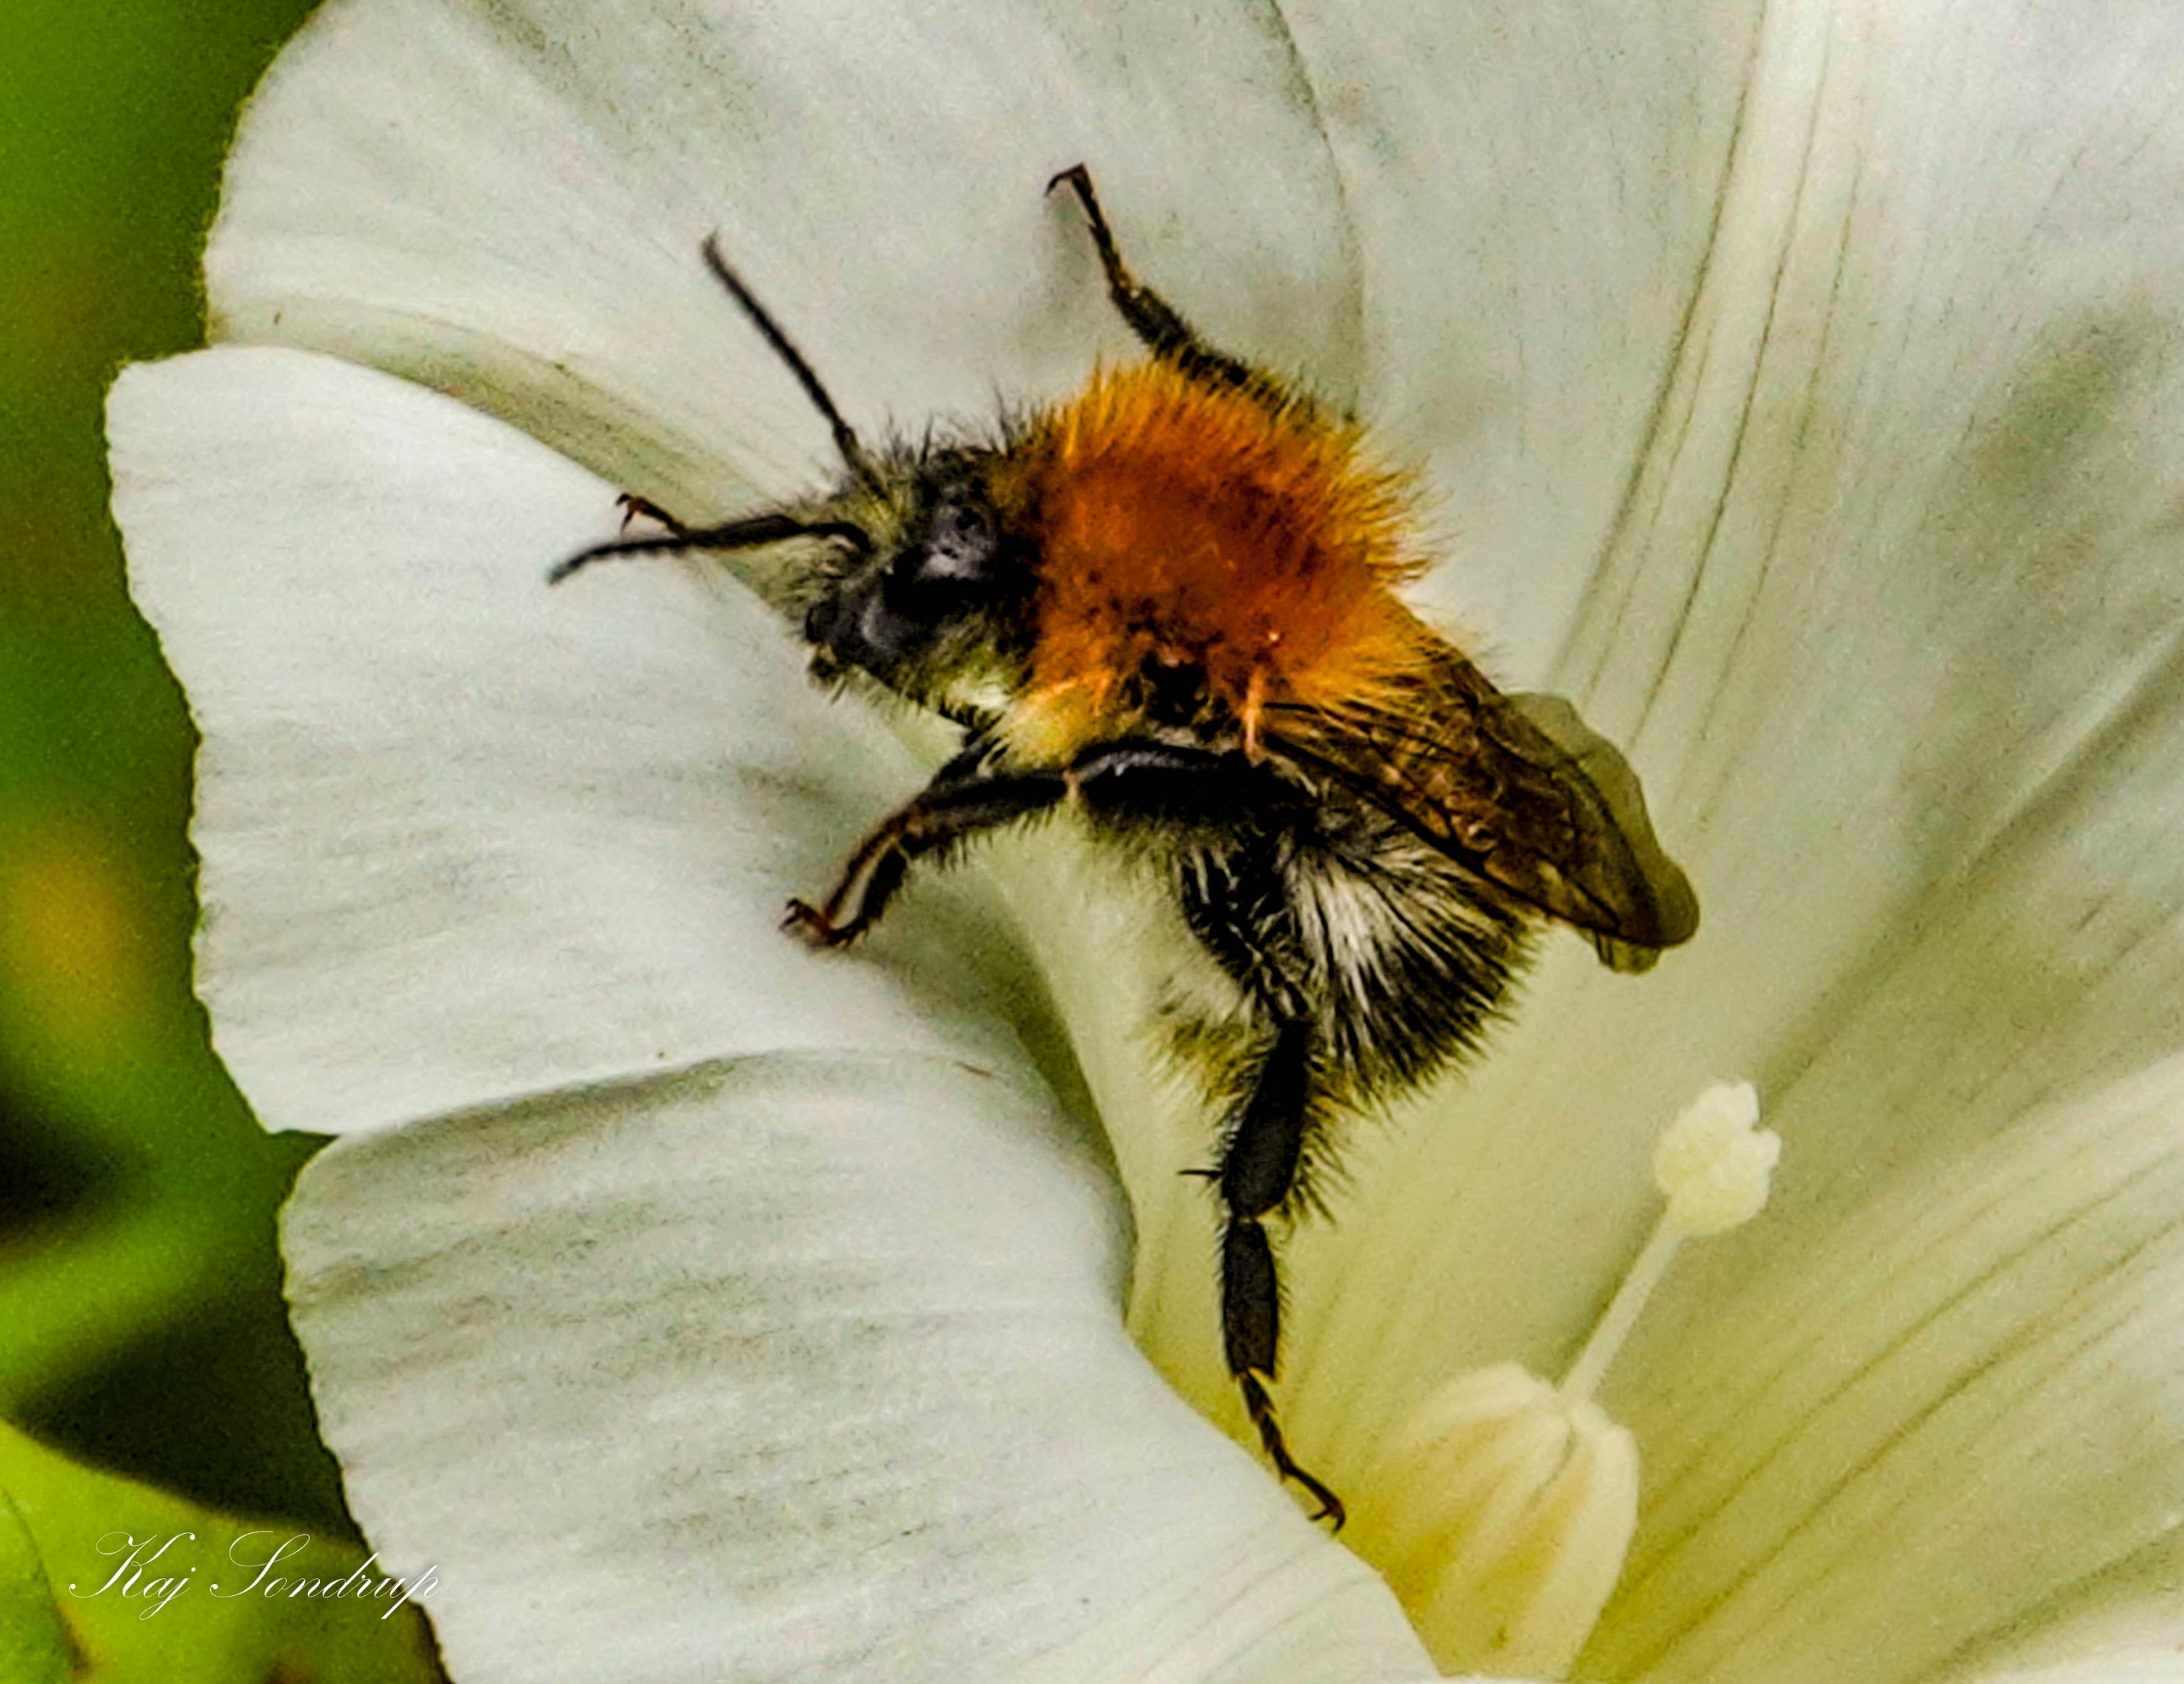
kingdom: Animalia
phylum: Arthropoda
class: Insecta
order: Hymenoptera
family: Apidae
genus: Bombus
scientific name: Bombus
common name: Humlebier
